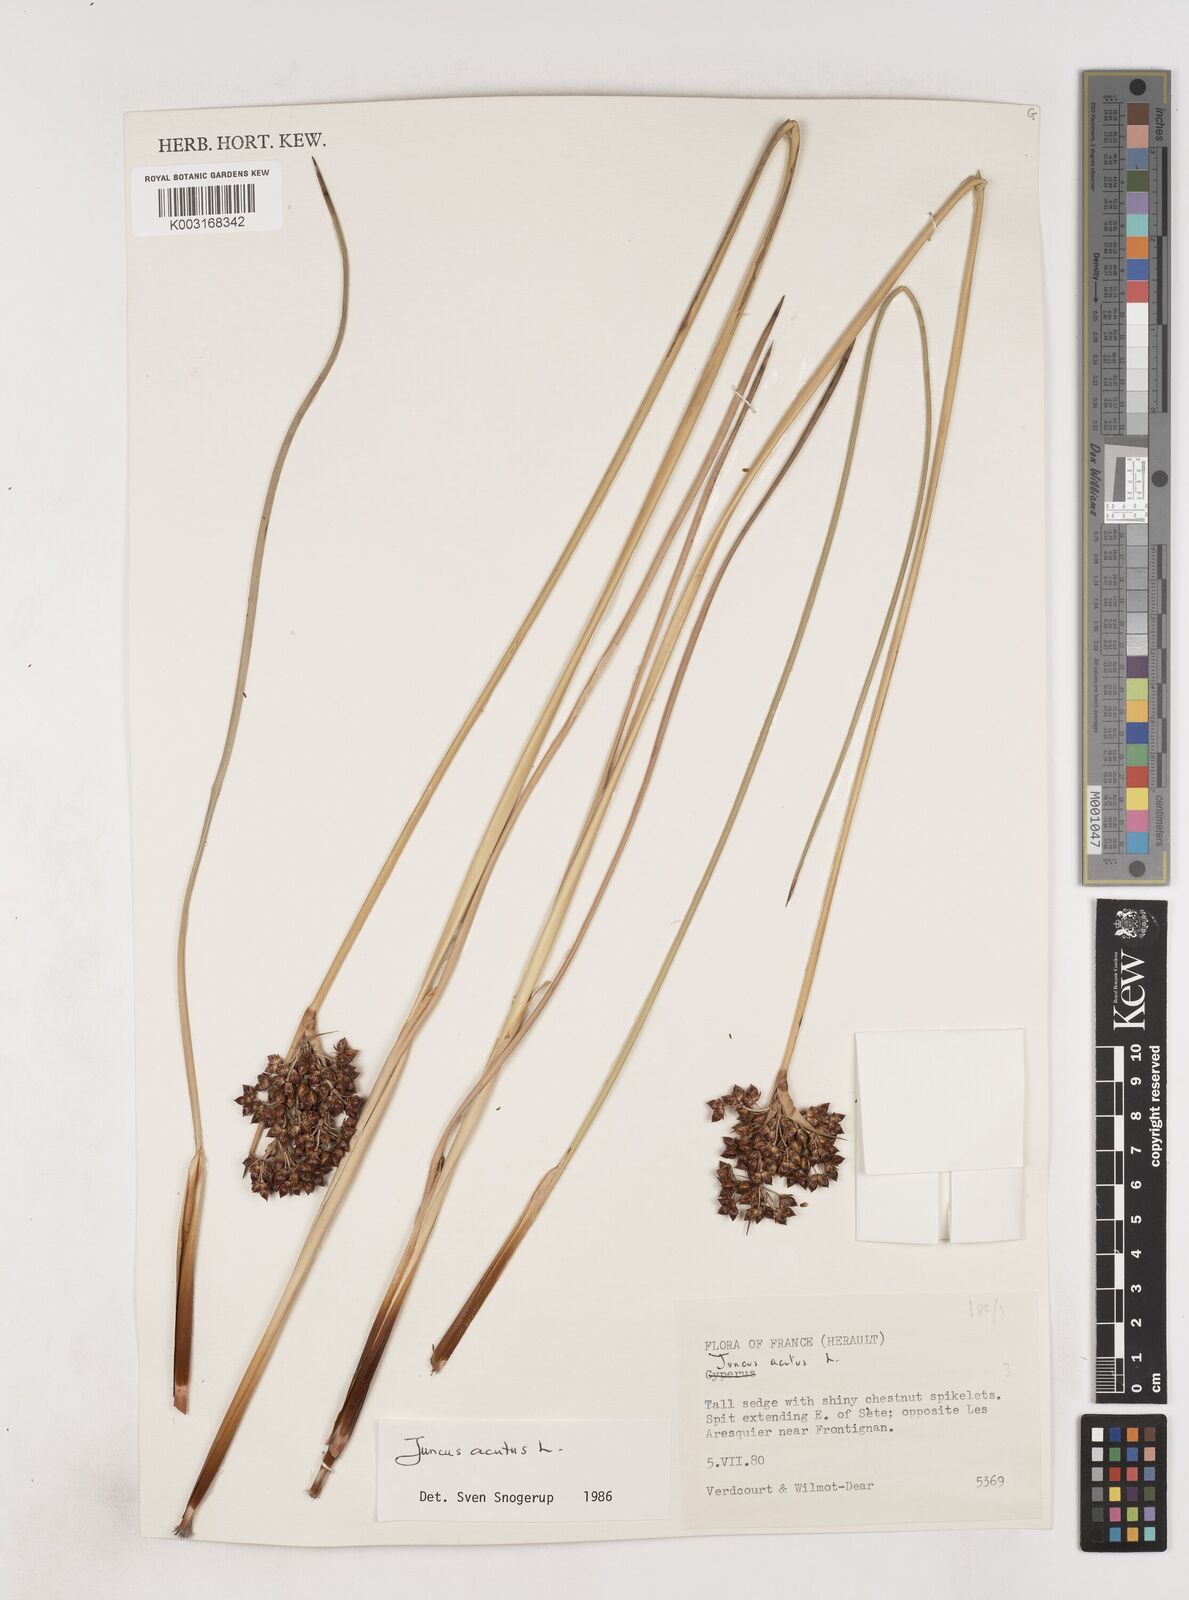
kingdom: Plantae
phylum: Tracheophyta
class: Liliopsida
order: Poales
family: Juncaceae
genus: Juncus
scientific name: Juncus acutus
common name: Sharp rush
